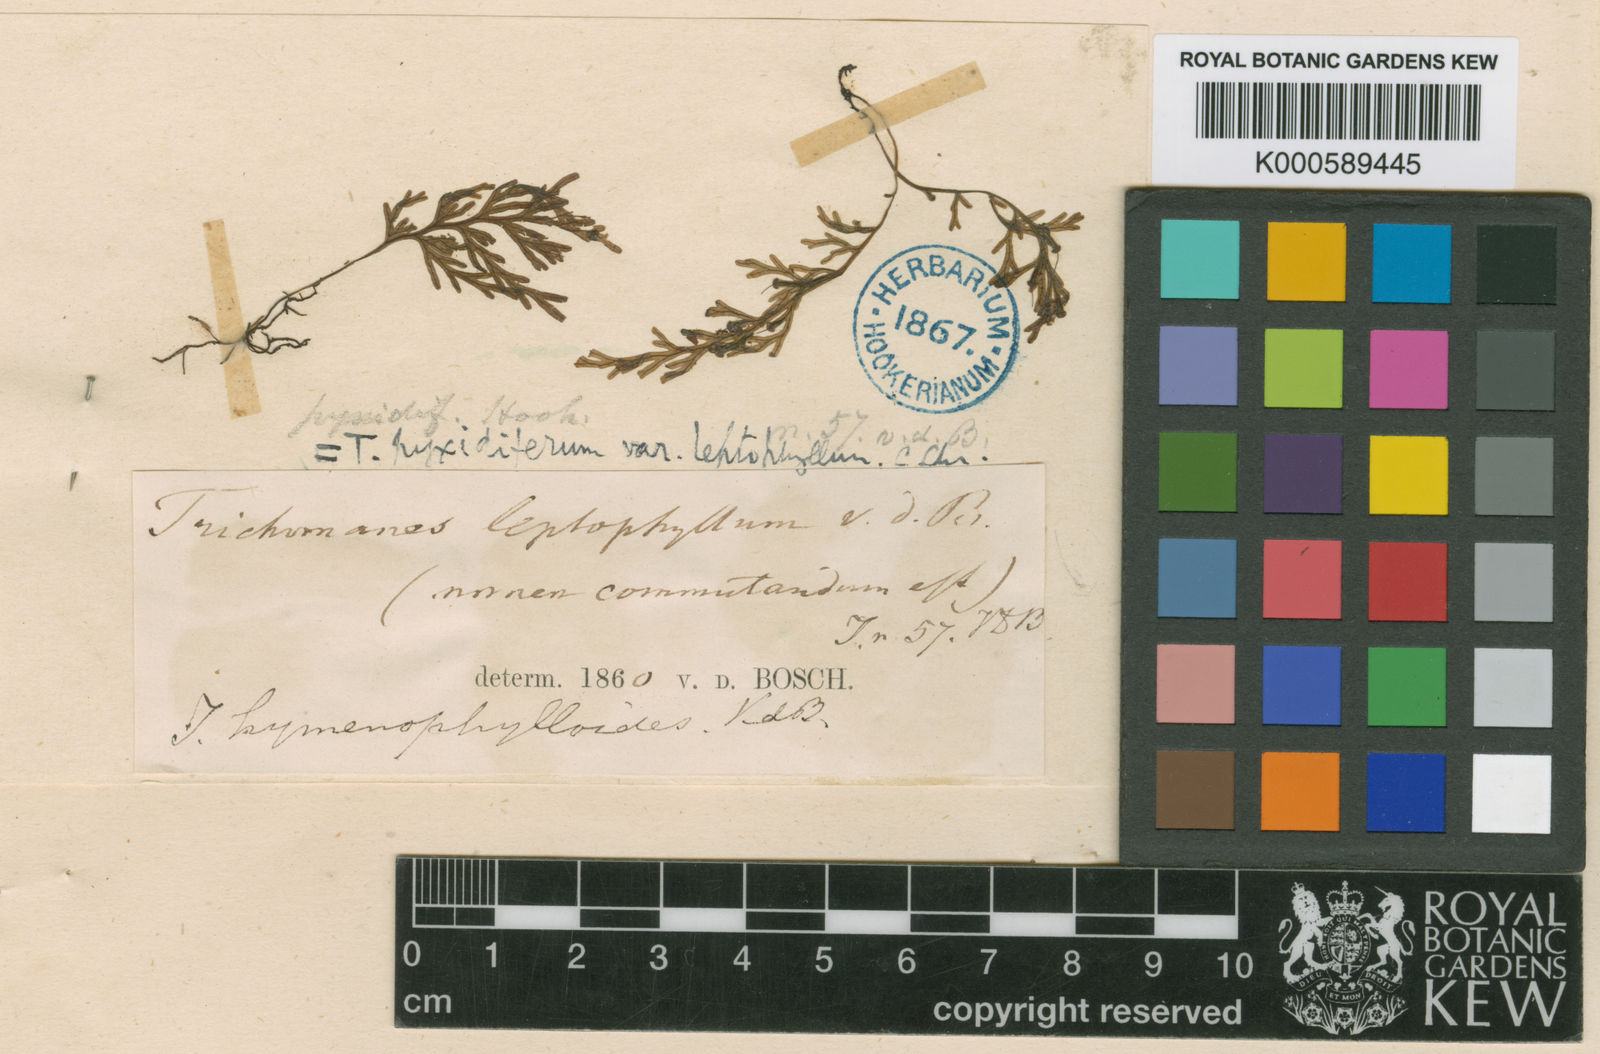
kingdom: Plantae
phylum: Tracheophyta
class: Polypodiopsida
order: Hymenophyllales
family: Hymenophyllaceae
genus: Polyphlebium
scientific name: Polyphlebium hymenophylloides
